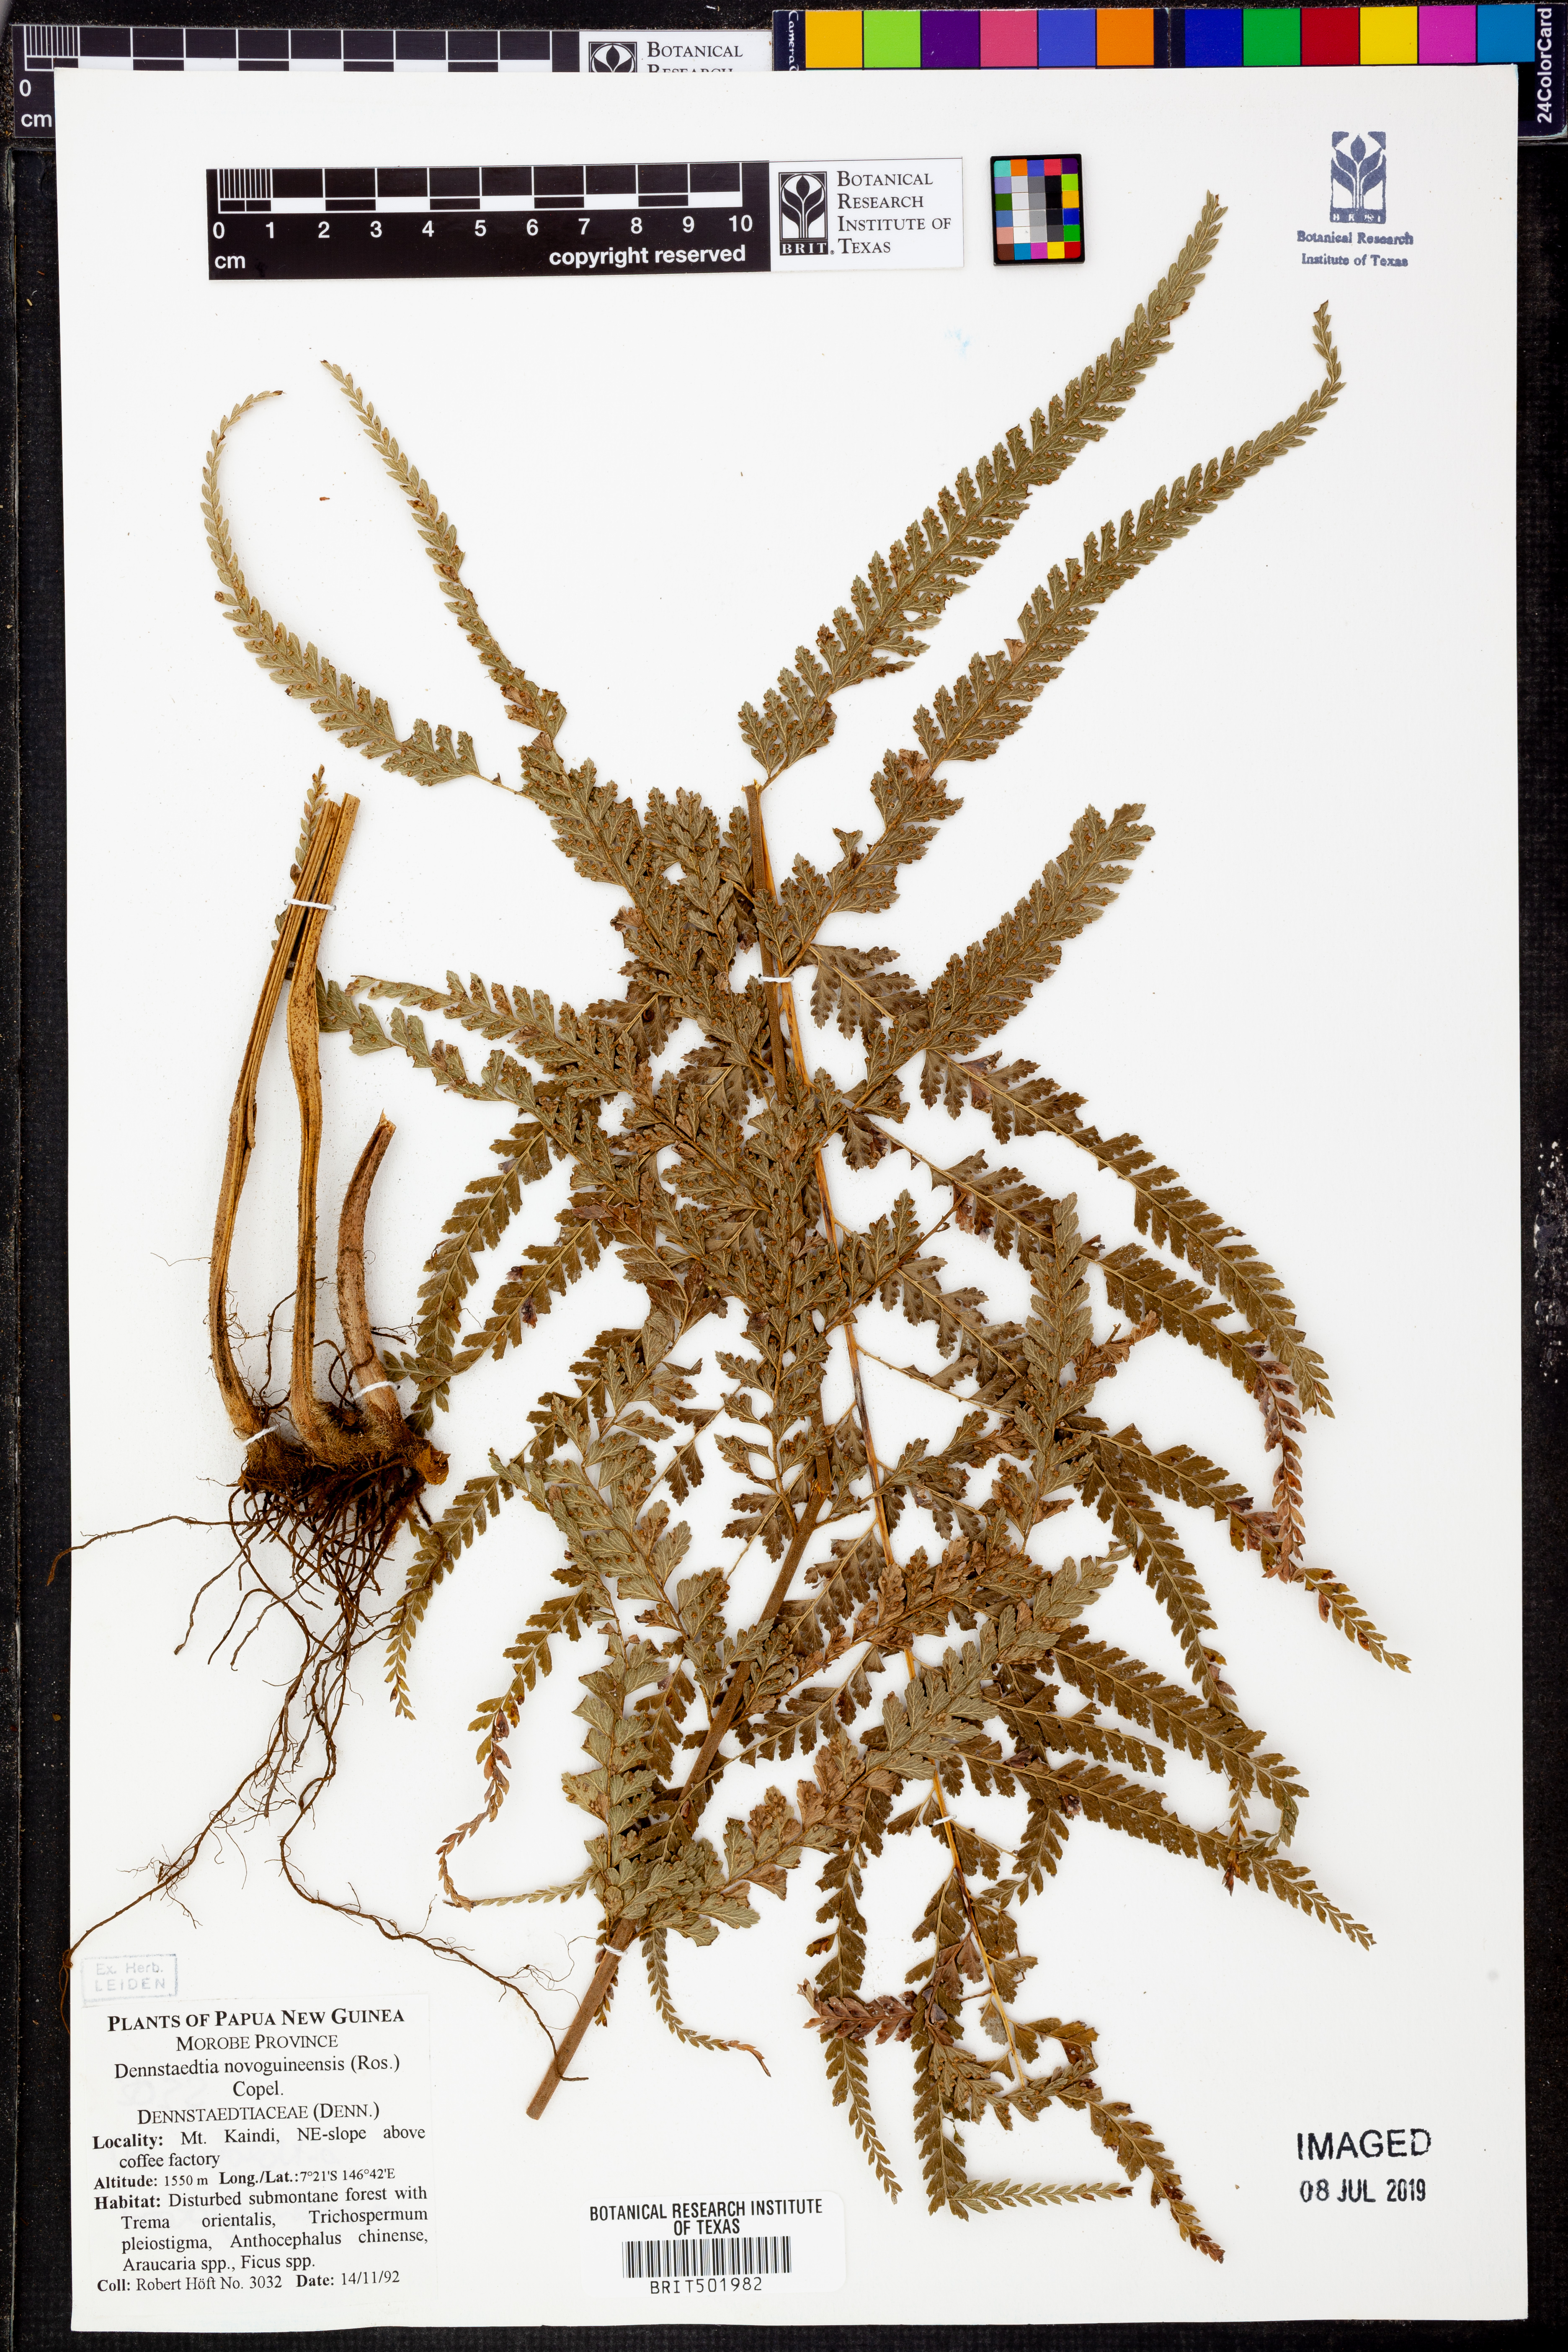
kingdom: Plantae
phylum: Tracheophyta
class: Polypodiopsida
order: Polypodiales
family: Dennstaedtiaceae
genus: Dennstaedtia
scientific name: Dennstaedtia novoguineensis
